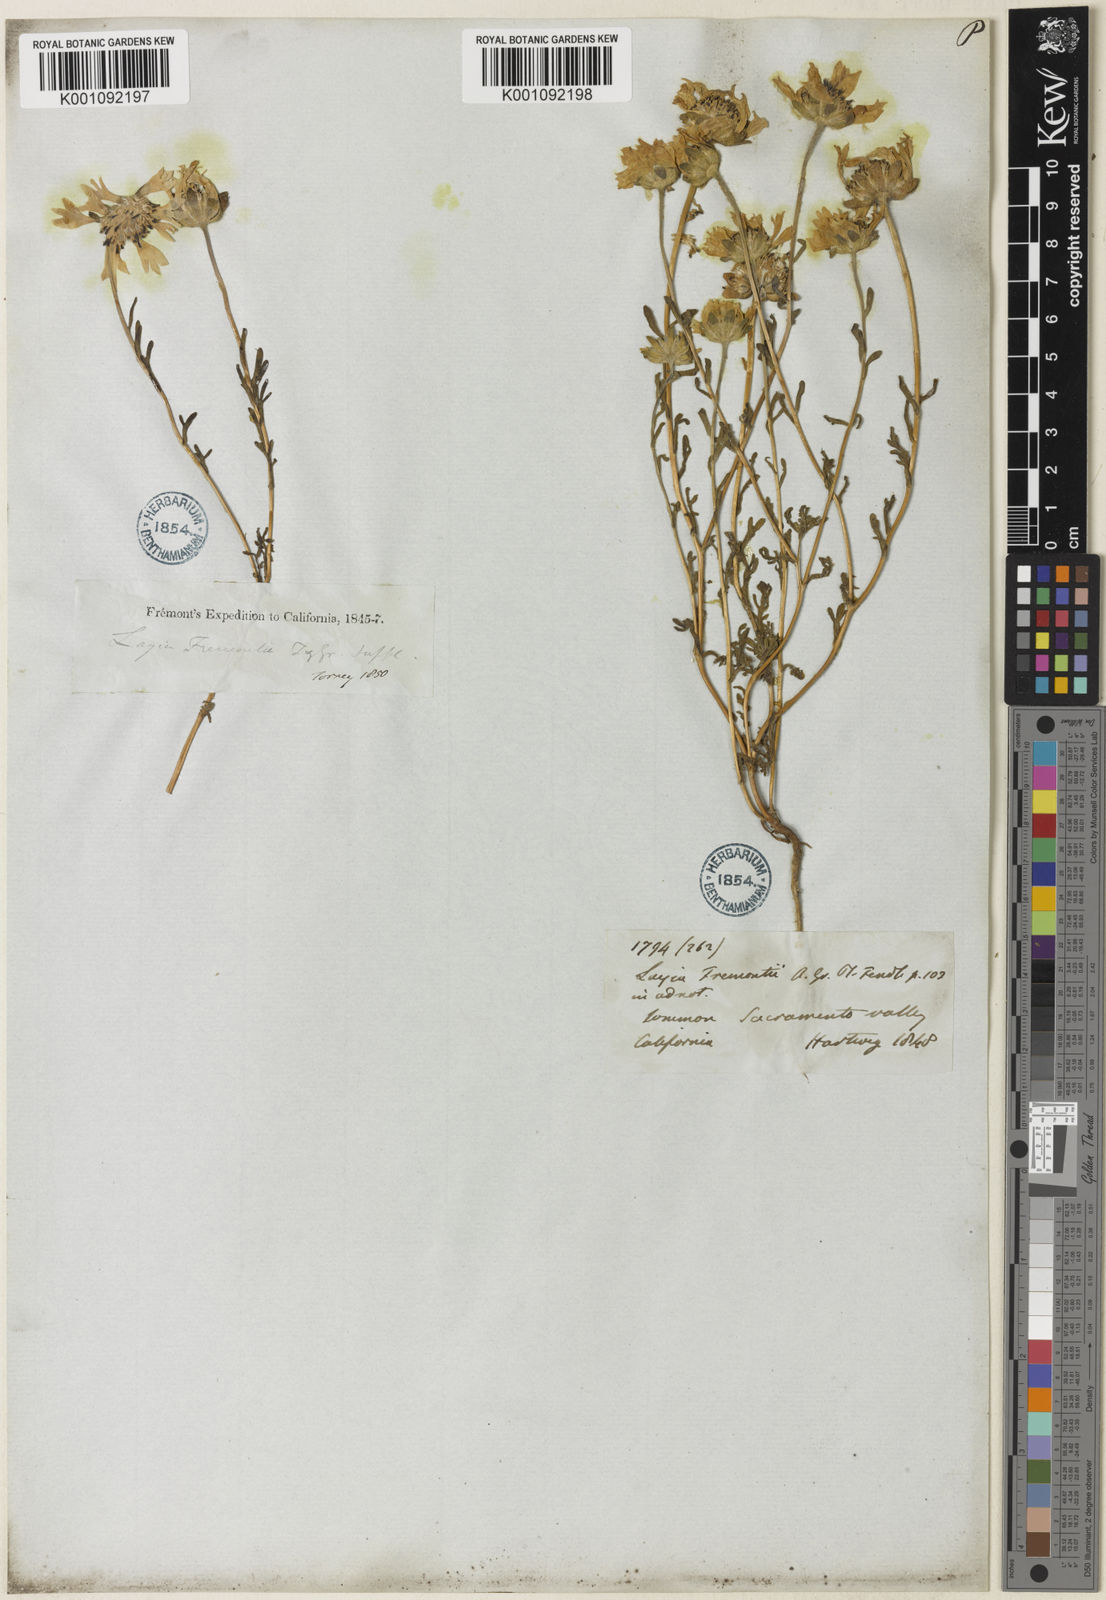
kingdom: Plantae
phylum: Tracheophyta
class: Magnoliopsida
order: Asterales
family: Asteraceae
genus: Layia
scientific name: Layia fremontii
